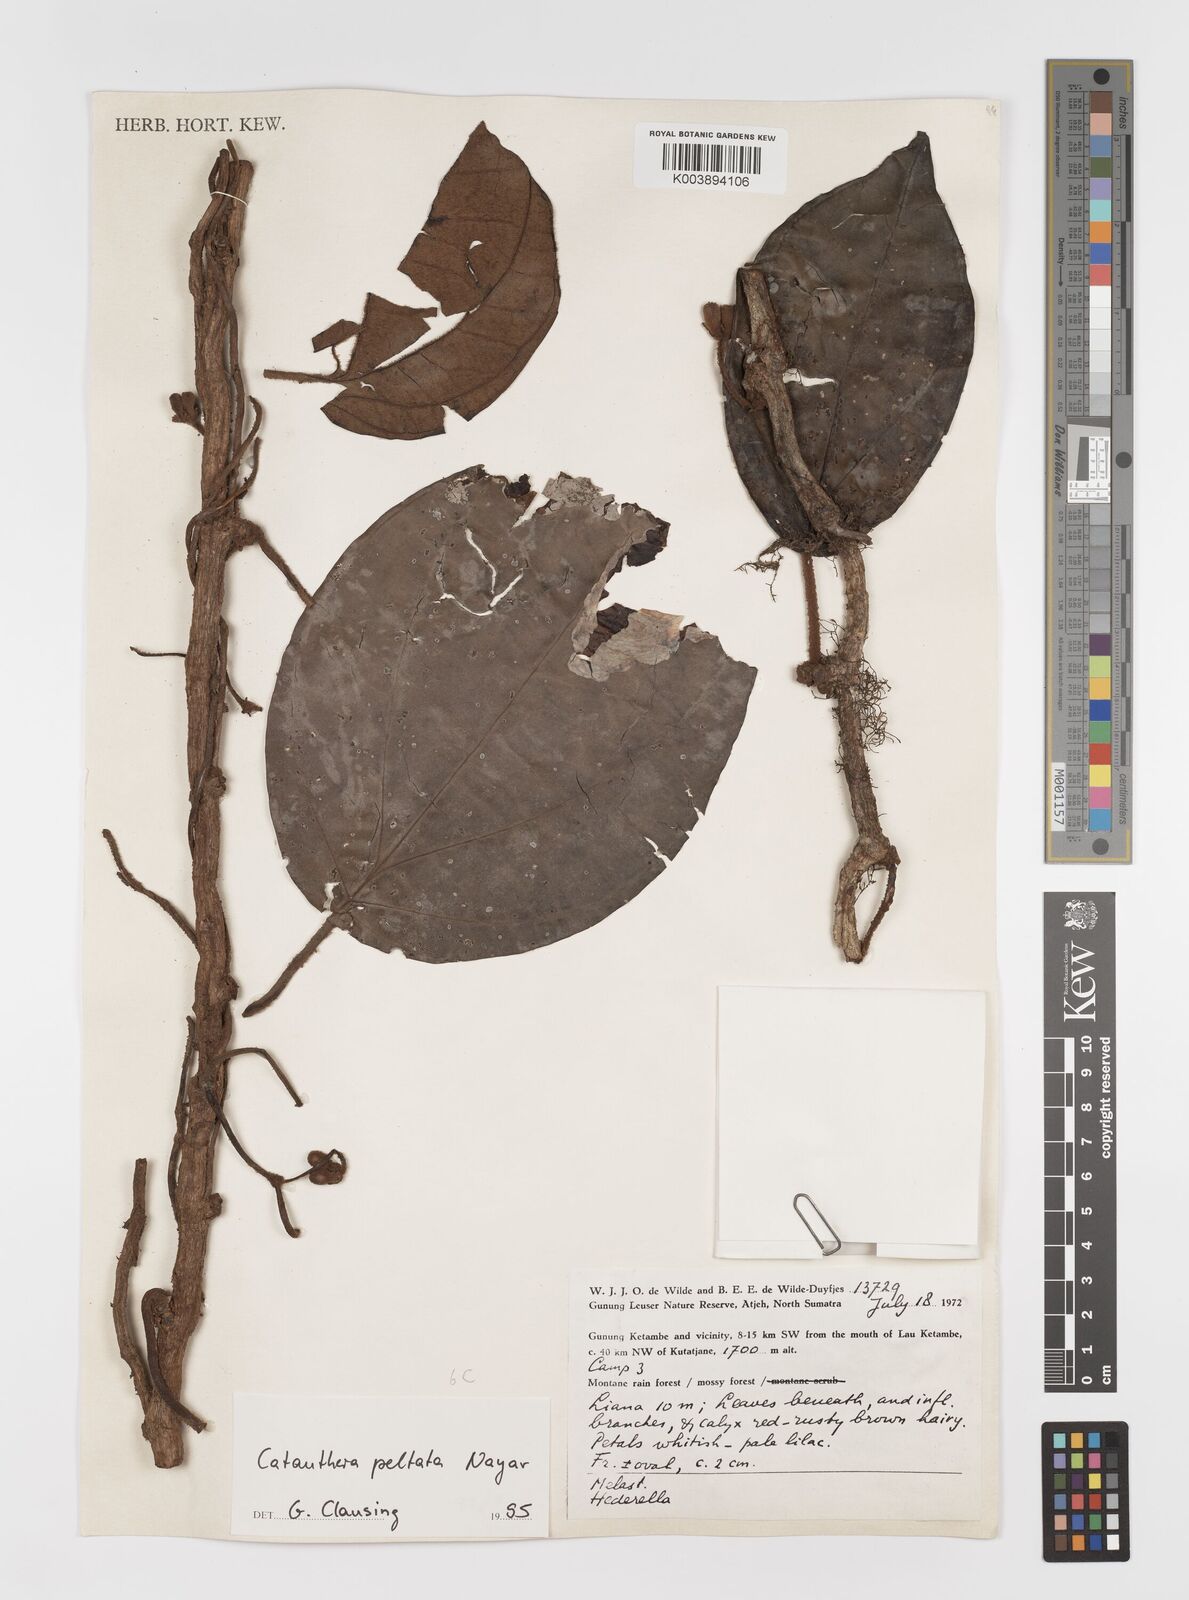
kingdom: Plantae
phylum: Tracheophyta
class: Magnoliopsida
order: Myrtales
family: Melastomataceae
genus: Catanthera
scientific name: Catanthera peltata
